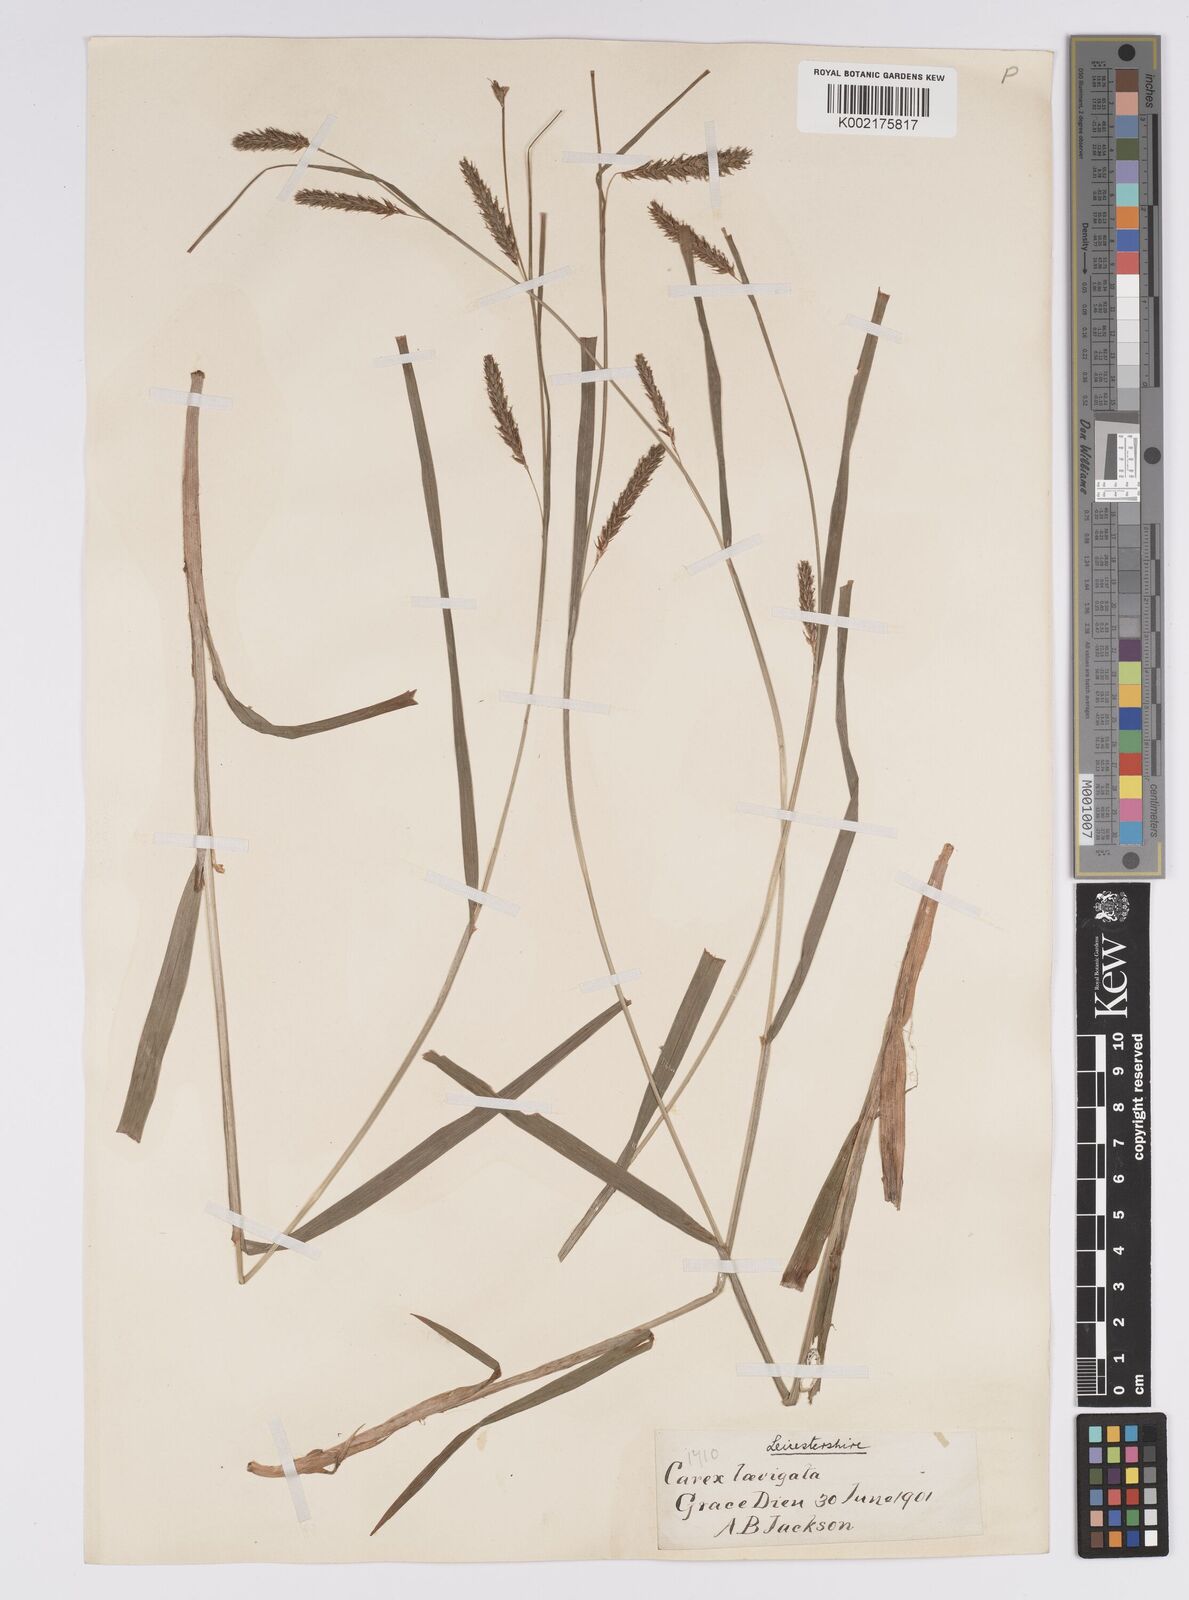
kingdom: Plantae
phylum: Tracheophyta
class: Liliopsida
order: Poales
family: Cyperaceae
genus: Carex
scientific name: Carex laevigata
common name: Smooth-stalked sedge
